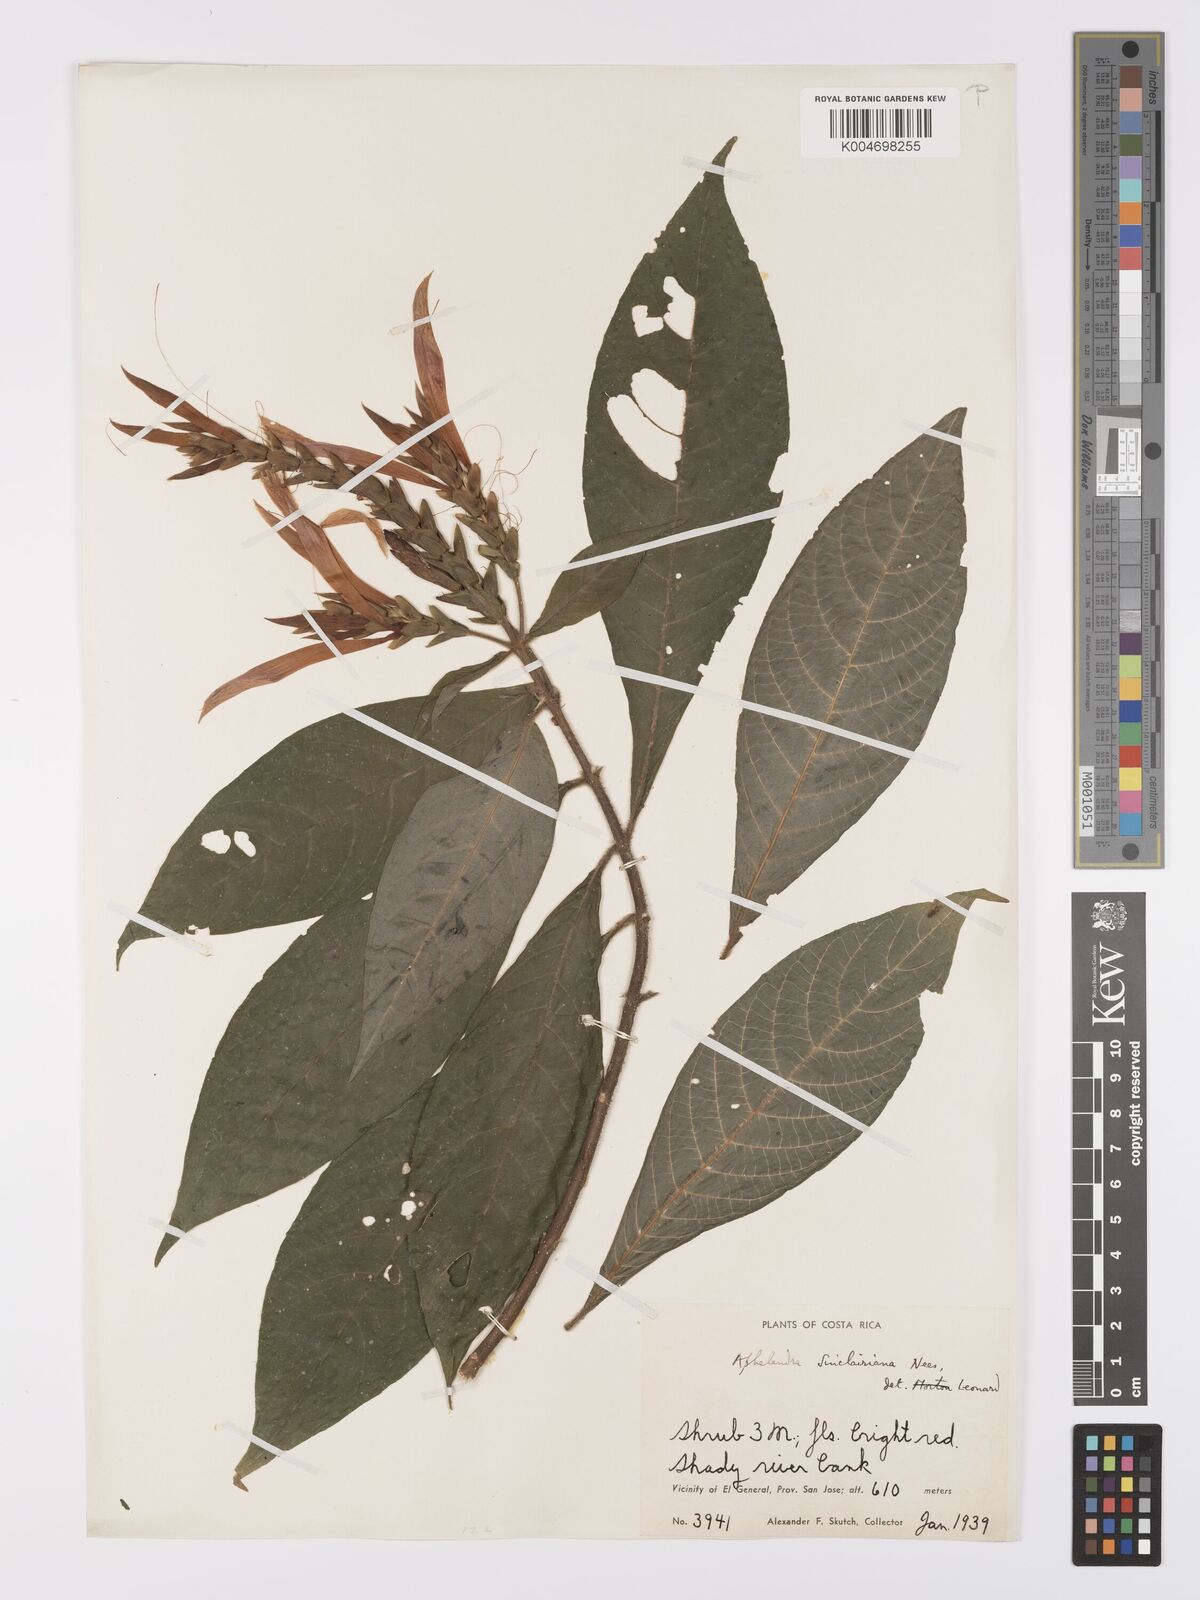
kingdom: Plantae
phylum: Tracheophyta
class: Magnoliopsida
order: Lamiales
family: Acanthaceae
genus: Aphelandra
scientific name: Aphelandra sinclairiana
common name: Coral aphelandra
